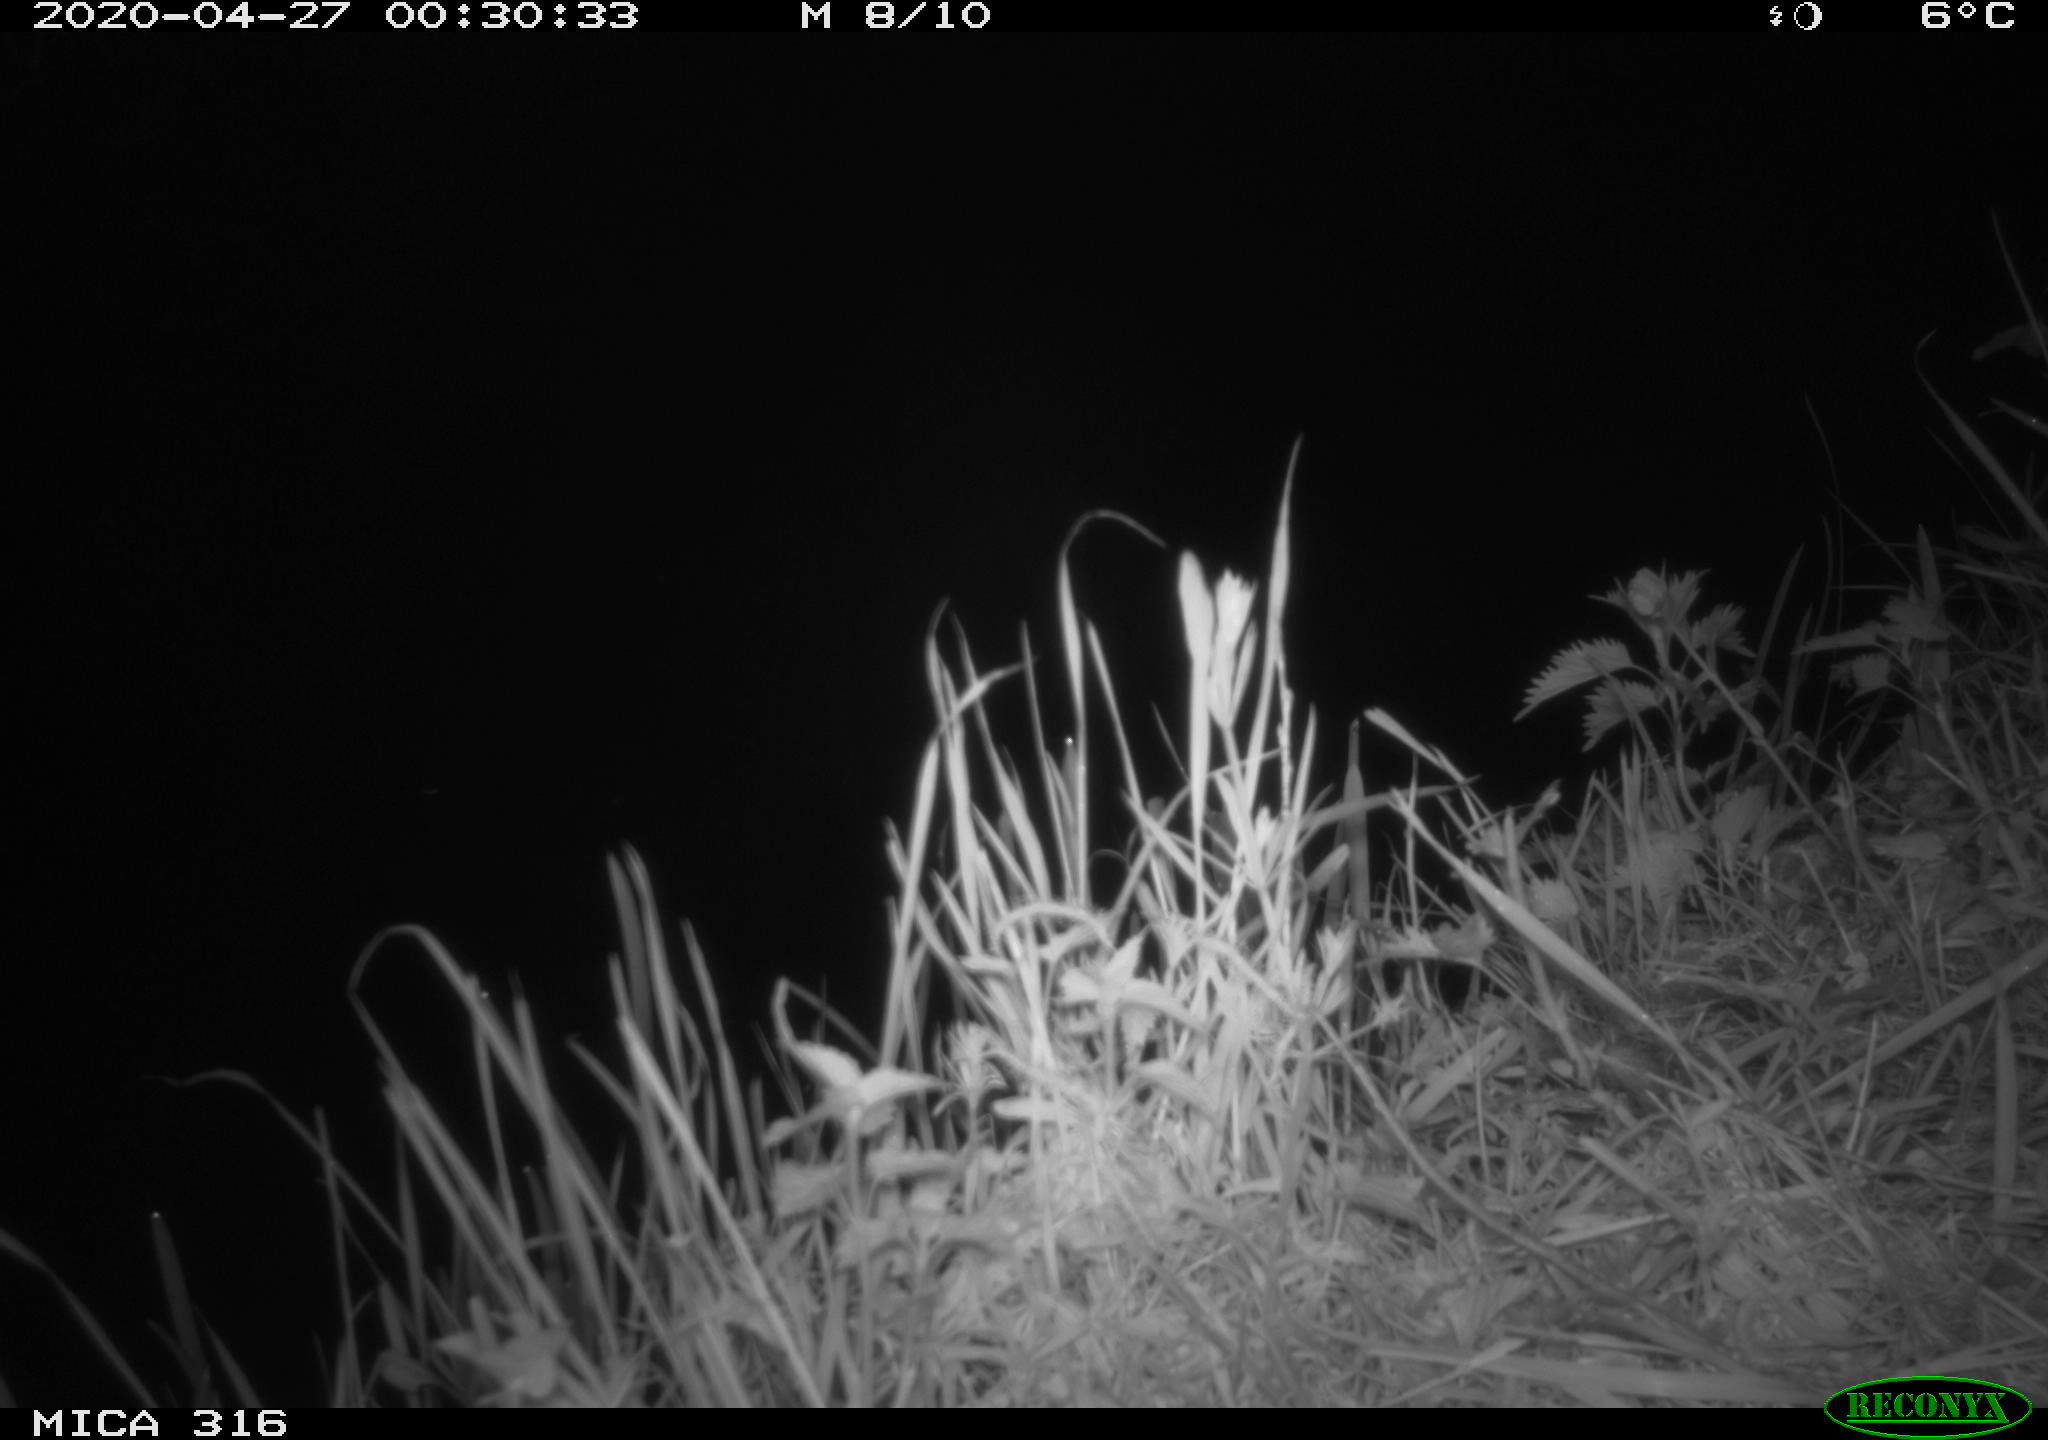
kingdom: Animalia
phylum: Chordata
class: Aves
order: Anseriformes
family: Anatidae
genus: Anas
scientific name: Anas platyrhynchos
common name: Mallard
